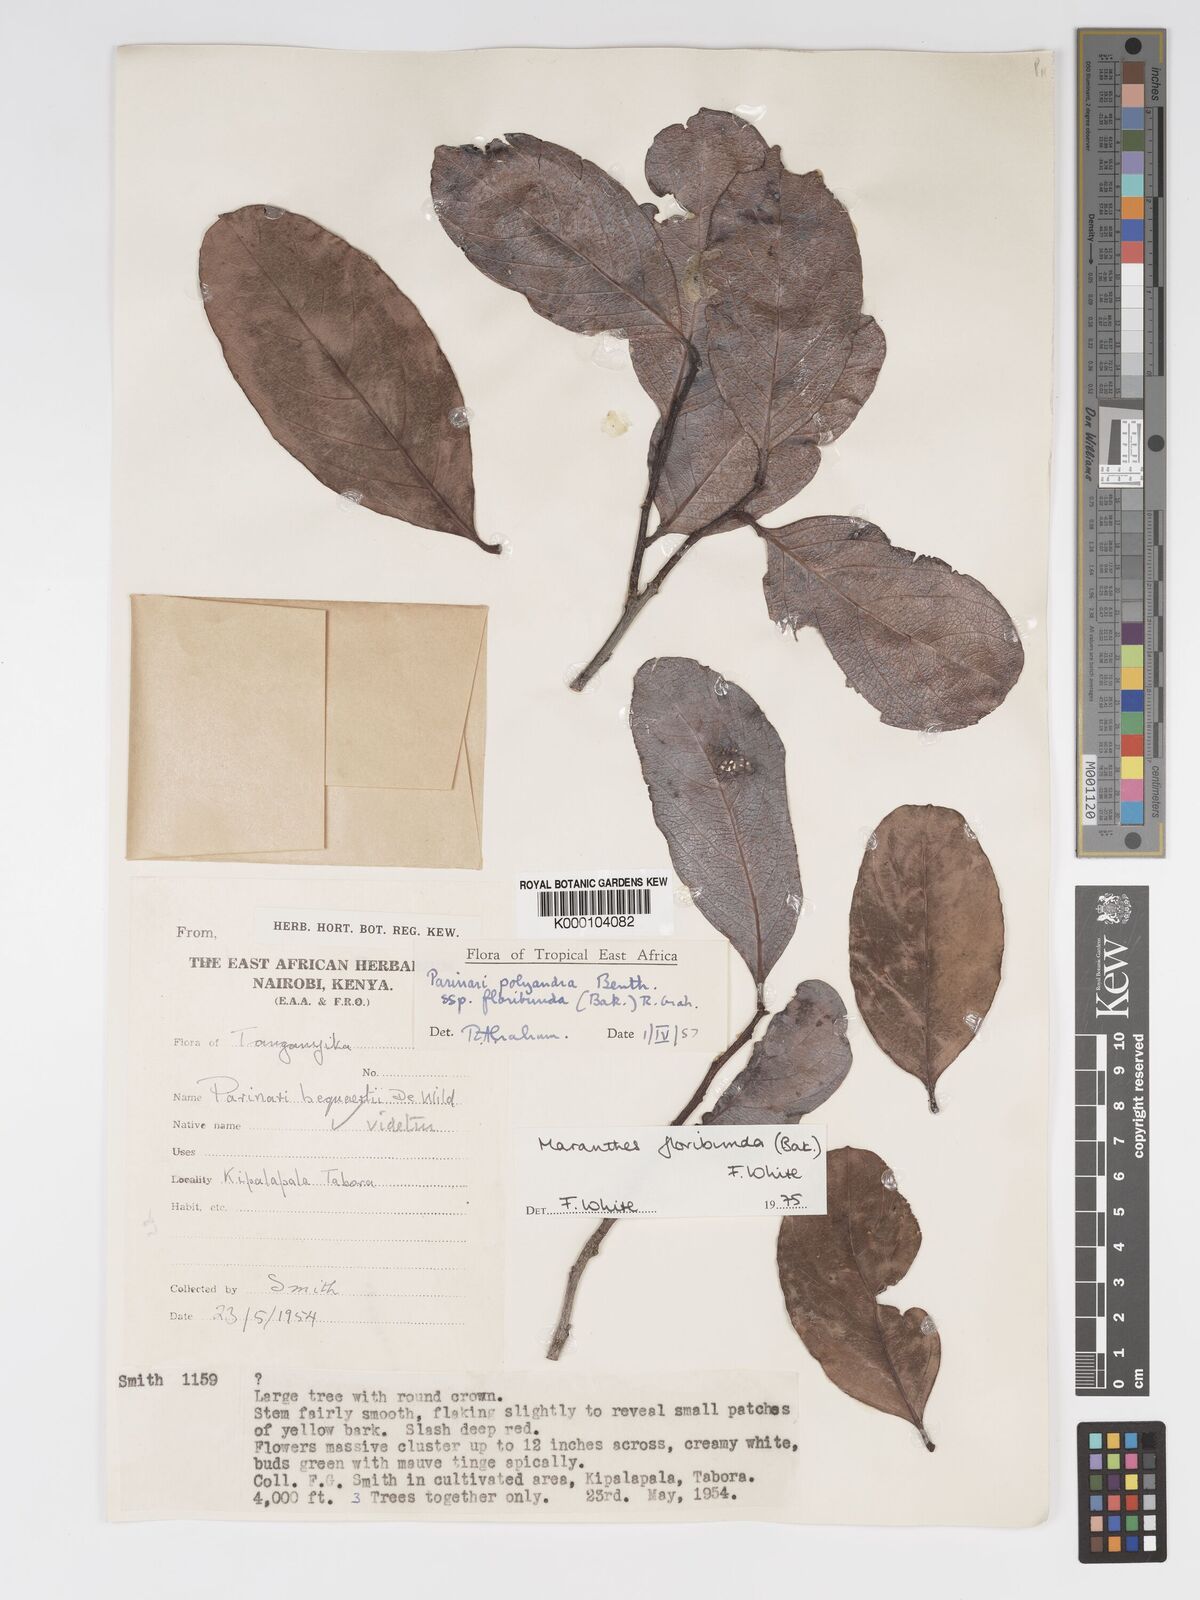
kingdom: Plantae
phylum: Tracheophyta
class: Magnoliopsida
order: Malpighiales
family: Chrysobalanaceae
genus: Maranthes
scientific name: Maranthes floribunda
